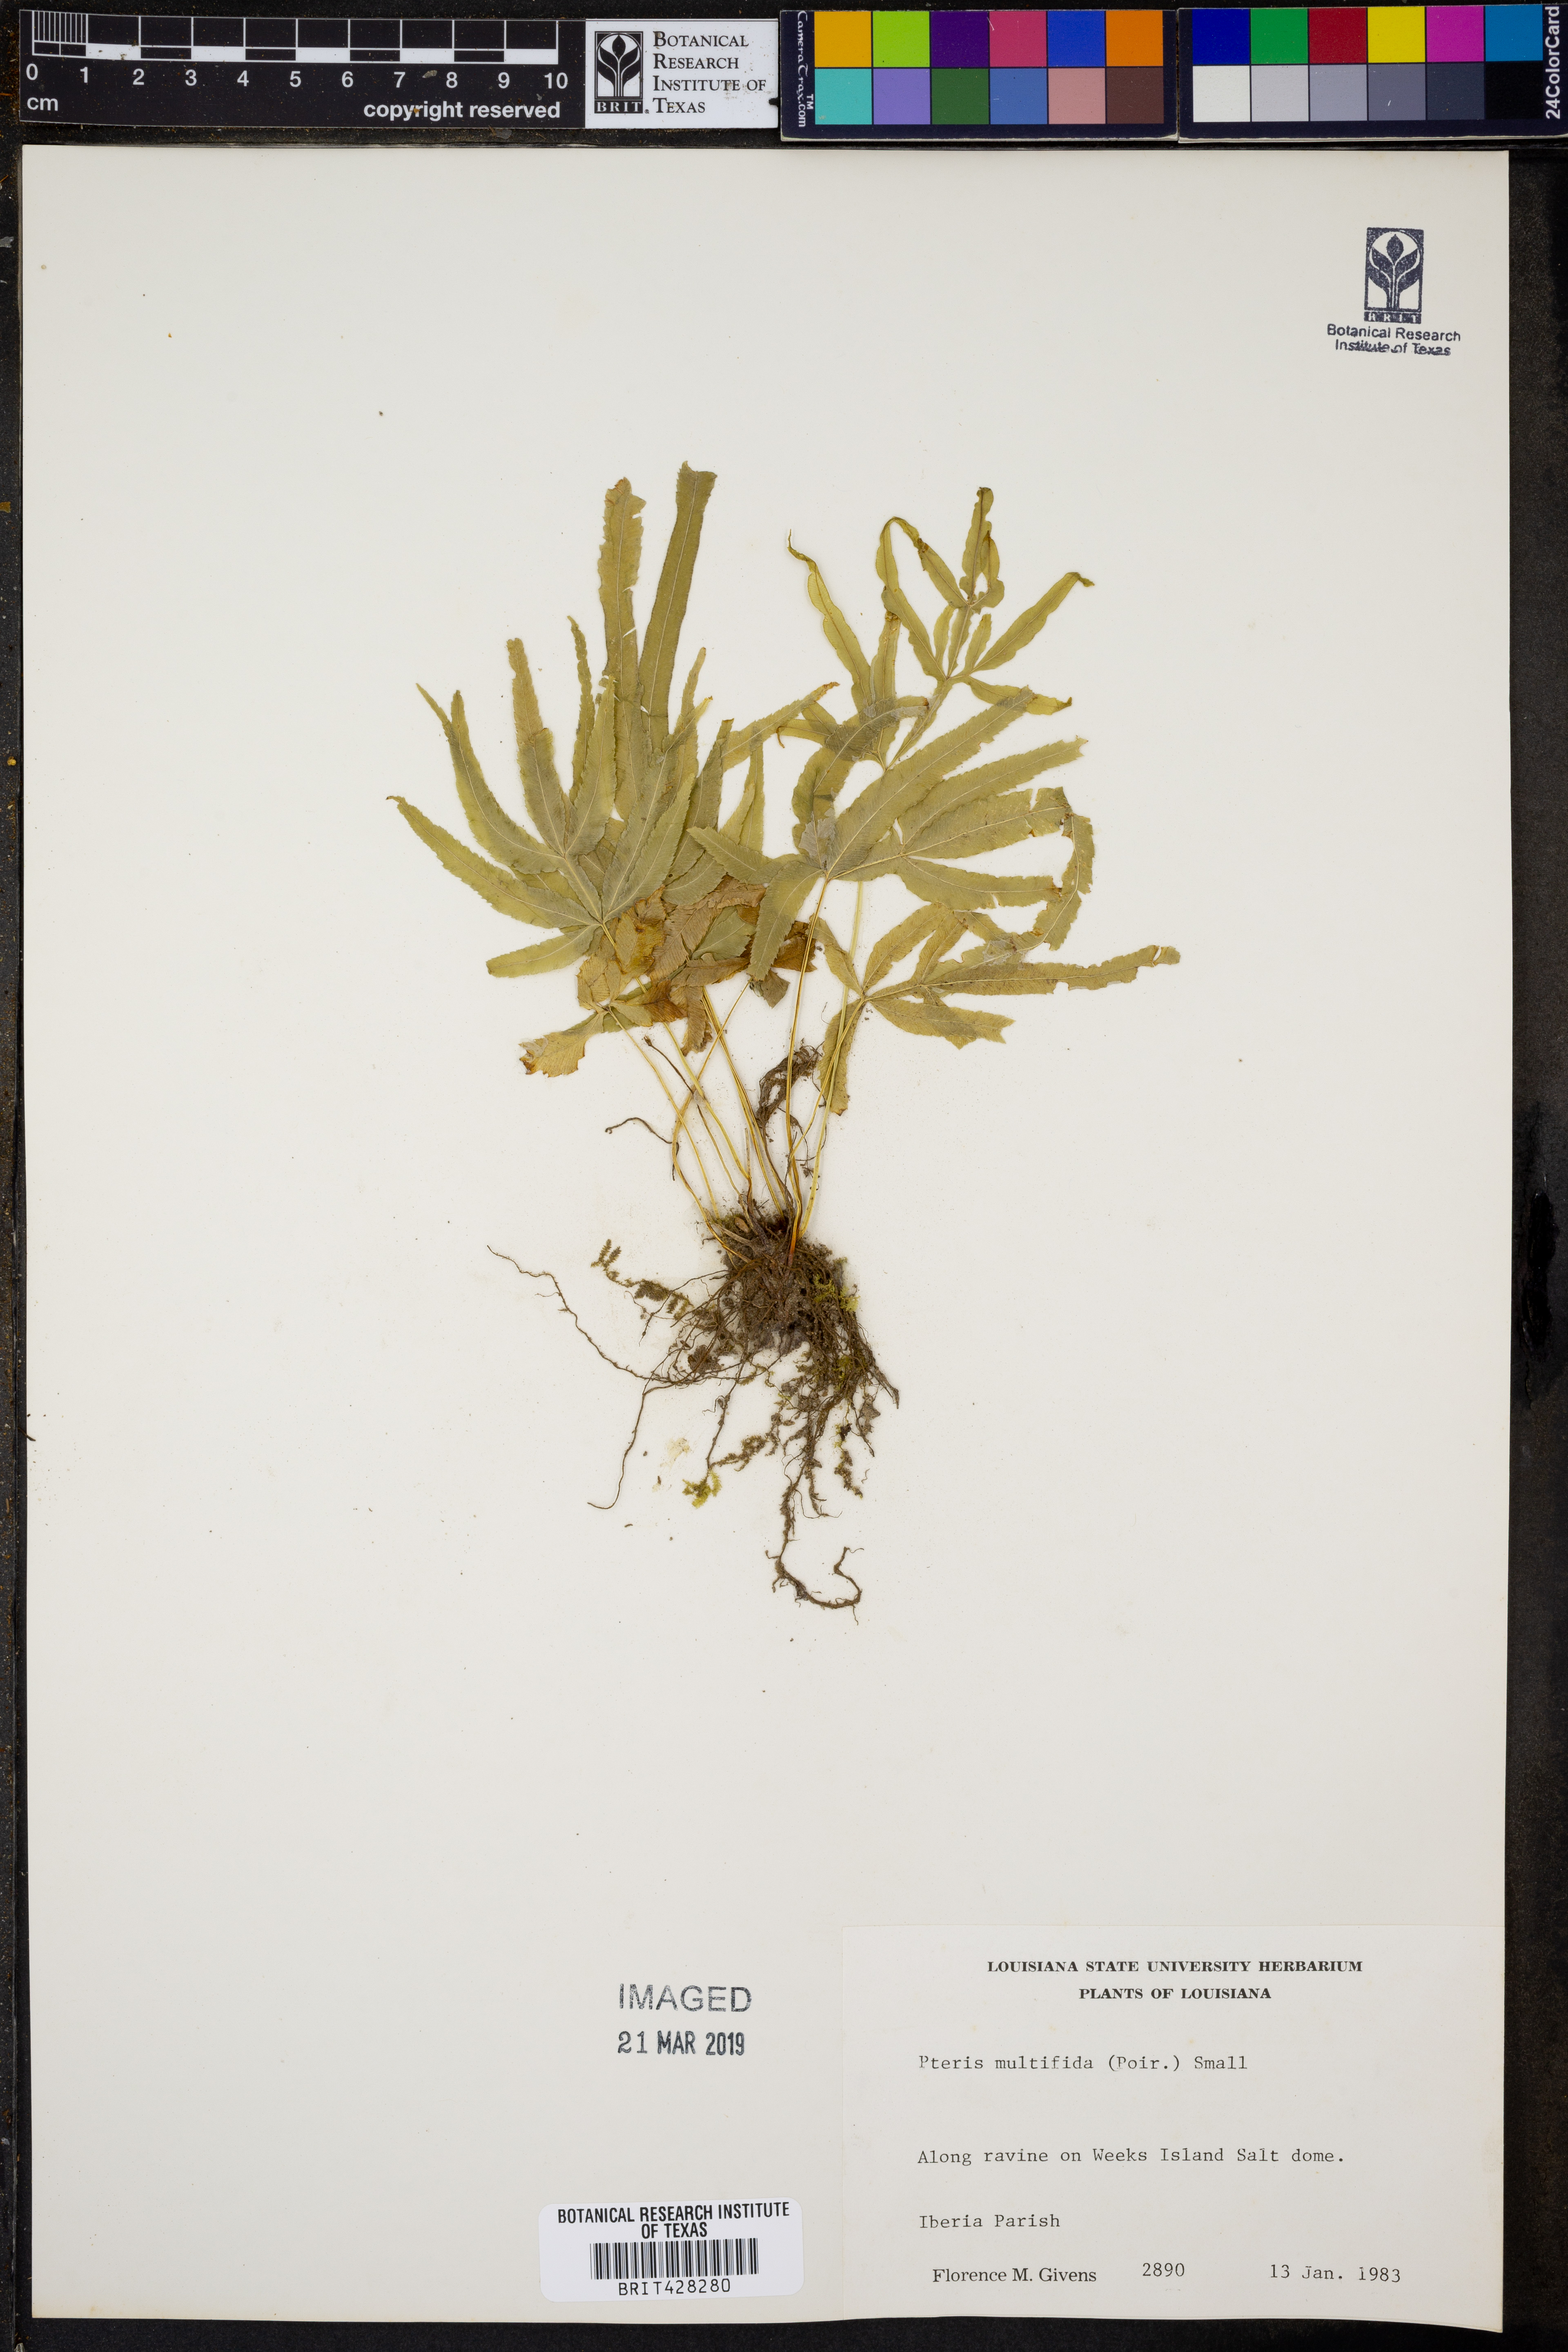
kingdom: Plantae
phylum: Tracheophyta
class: Polypodiopsida
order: Polypodiales
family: Pteridaceae
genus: Pteris
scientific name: Pteris multifida
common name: Spider brake
